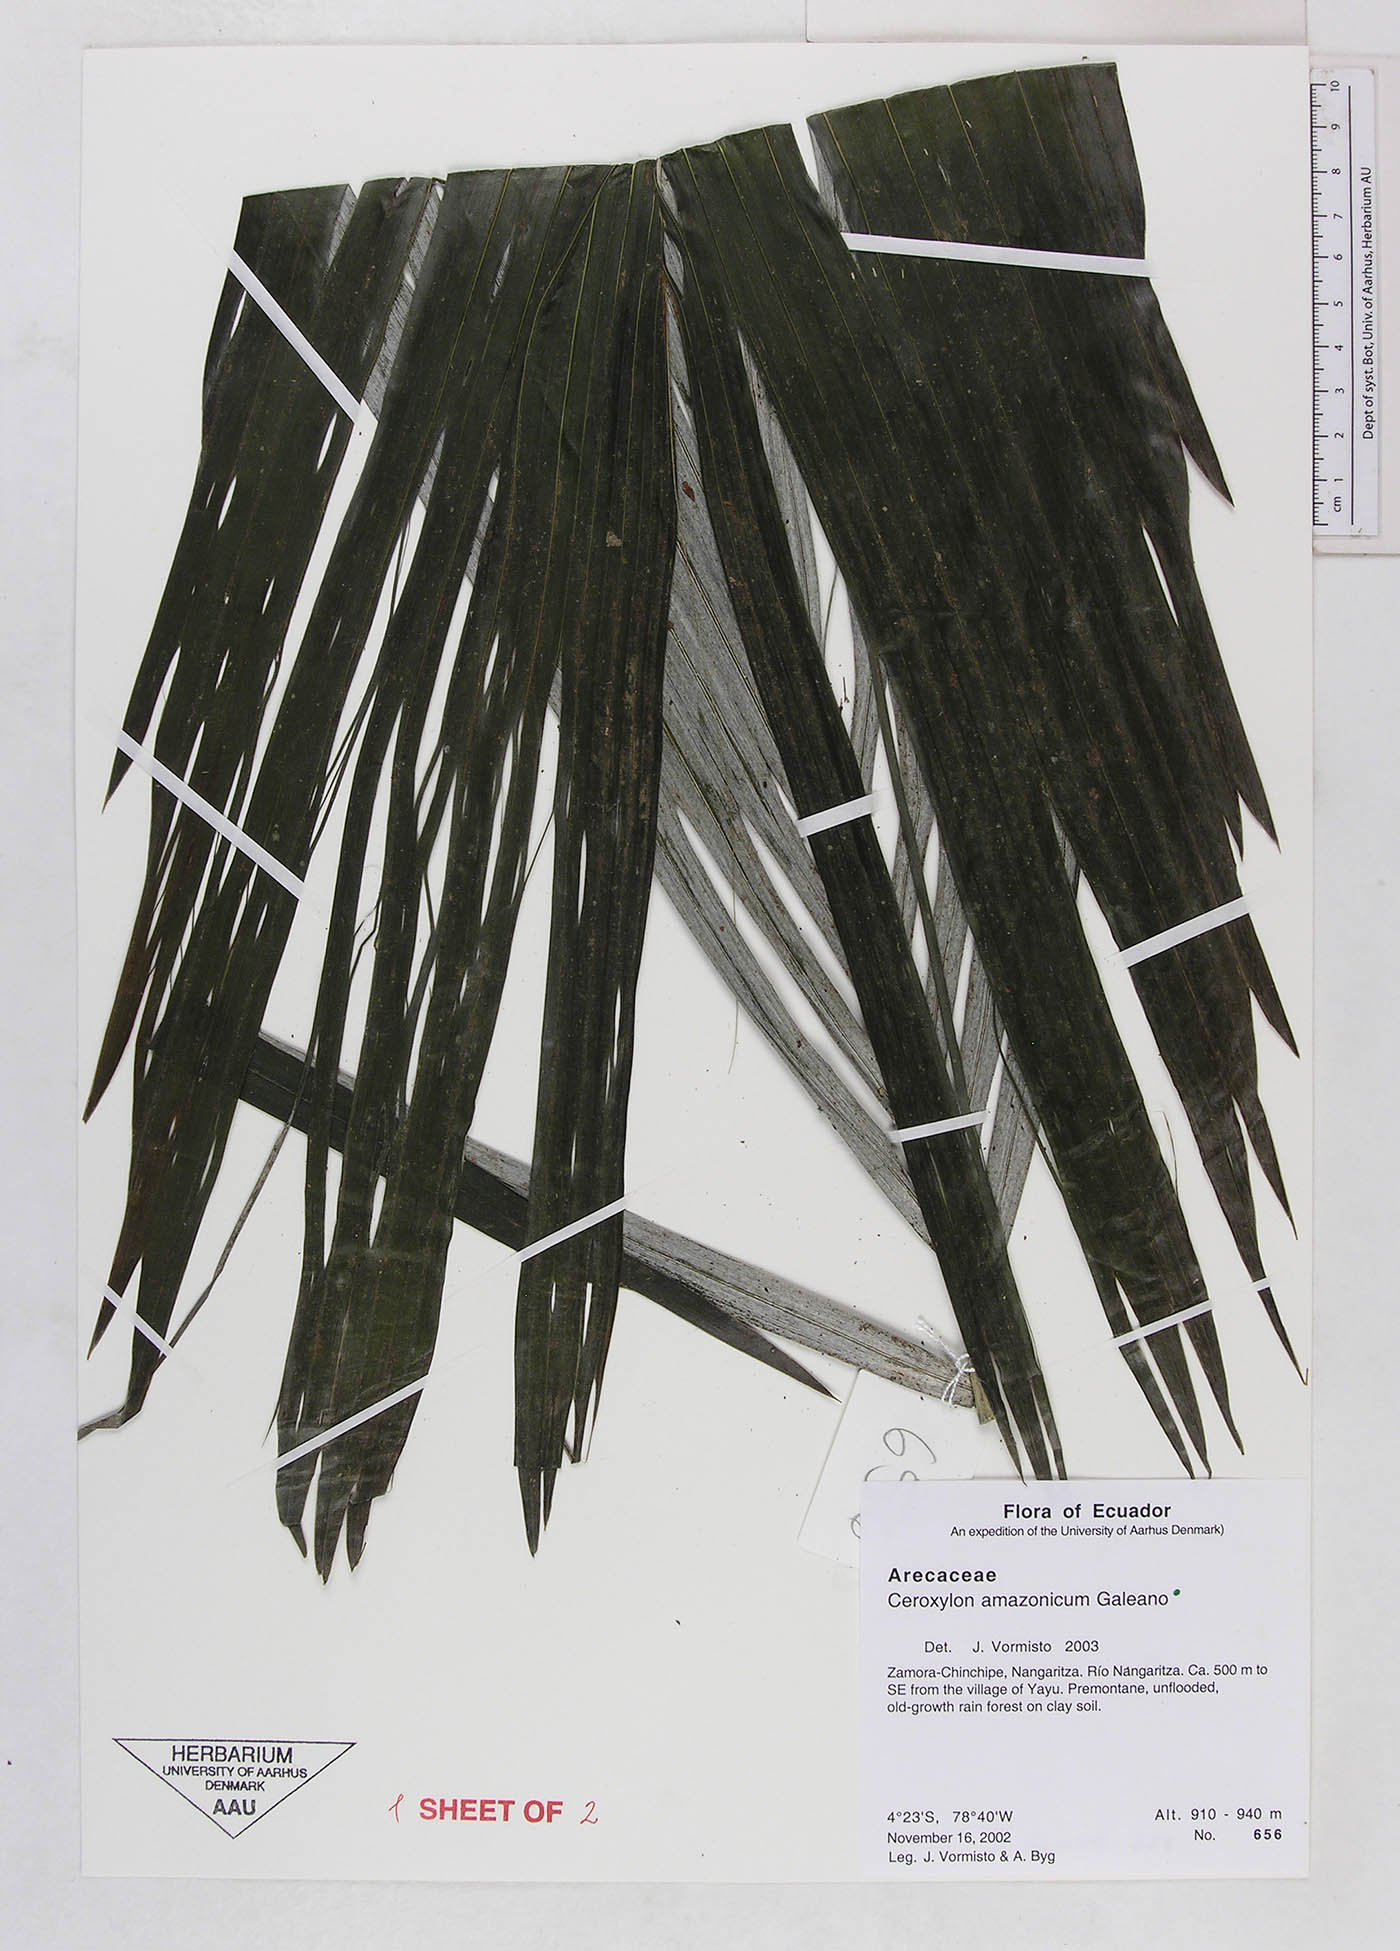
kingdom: Plantae
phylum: Tracheophyta
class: Liliopsida
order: Arecales
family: Arecaceae
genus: Ceroxylon
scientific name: Ceroxylon amazonicum
